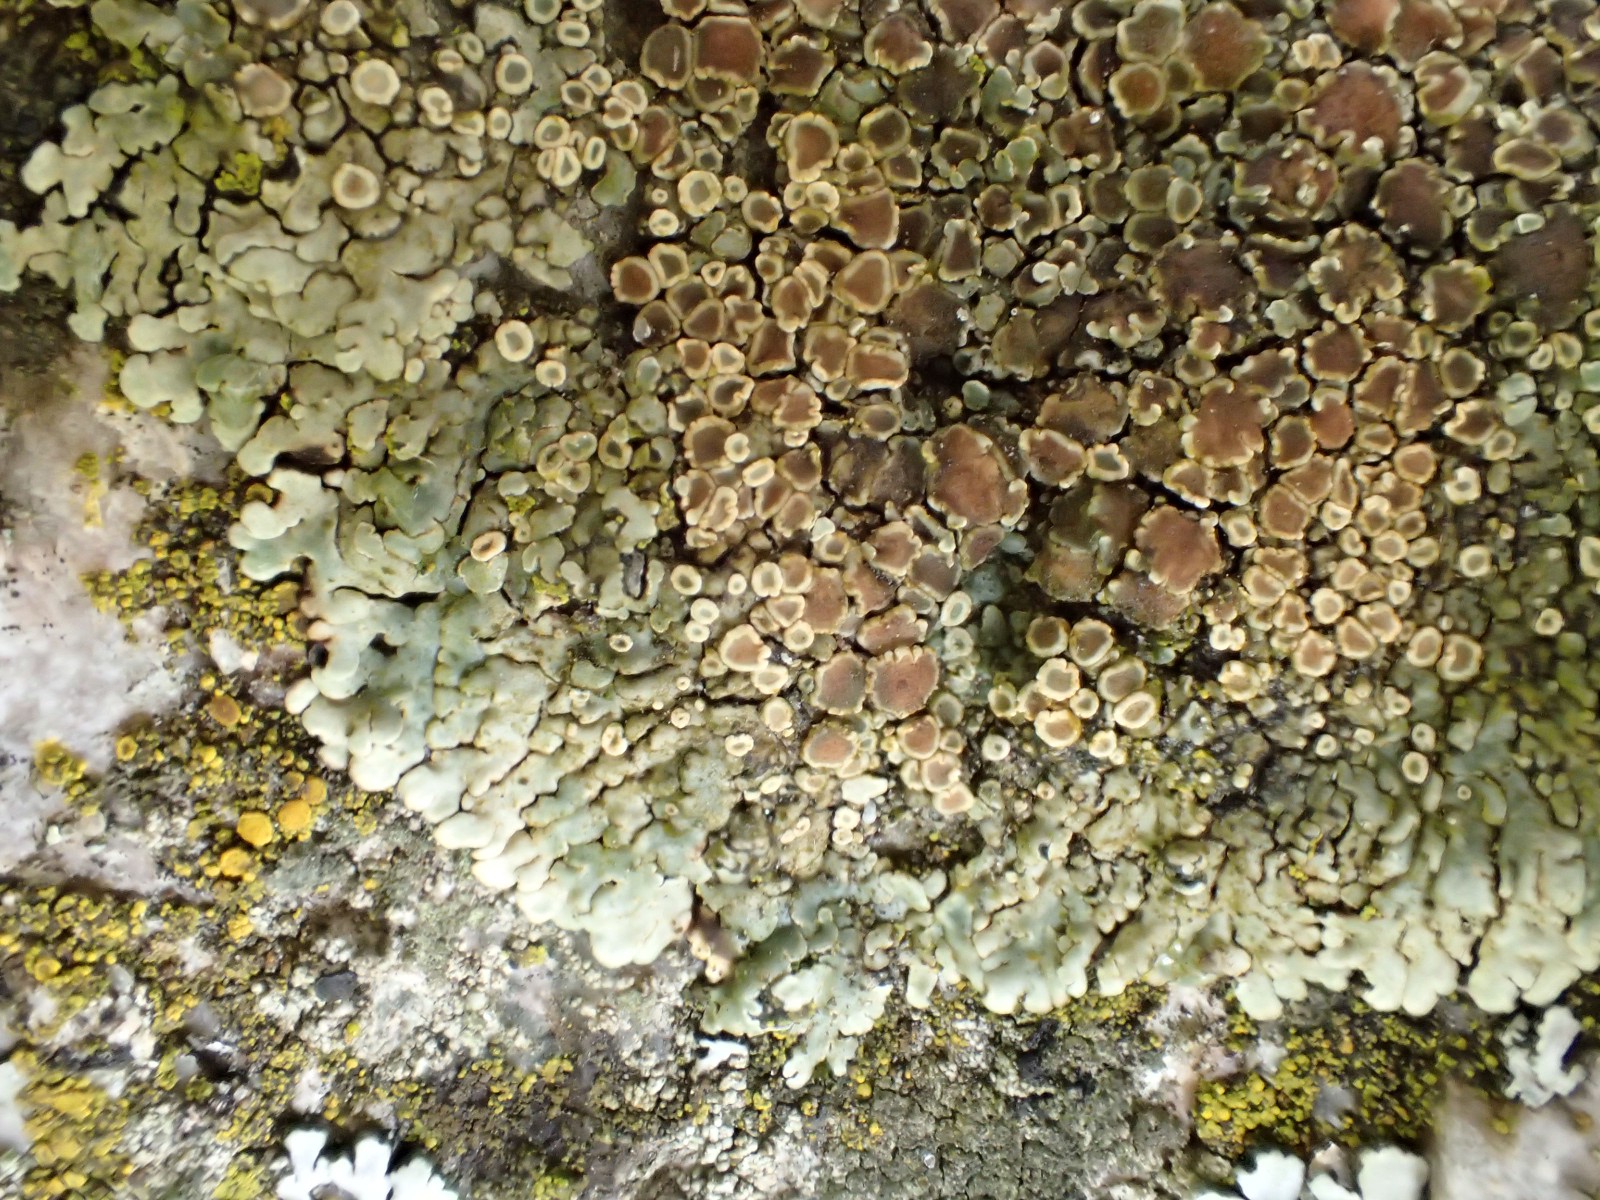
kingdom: Fungi
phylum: Ascomycota
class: Lecanoromycetes
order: Lecanorales
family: Lecanoraceae
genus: Protoparmeliopsis
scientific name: Protoparmeliopsis muralis
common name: randfliget kantskivelav
